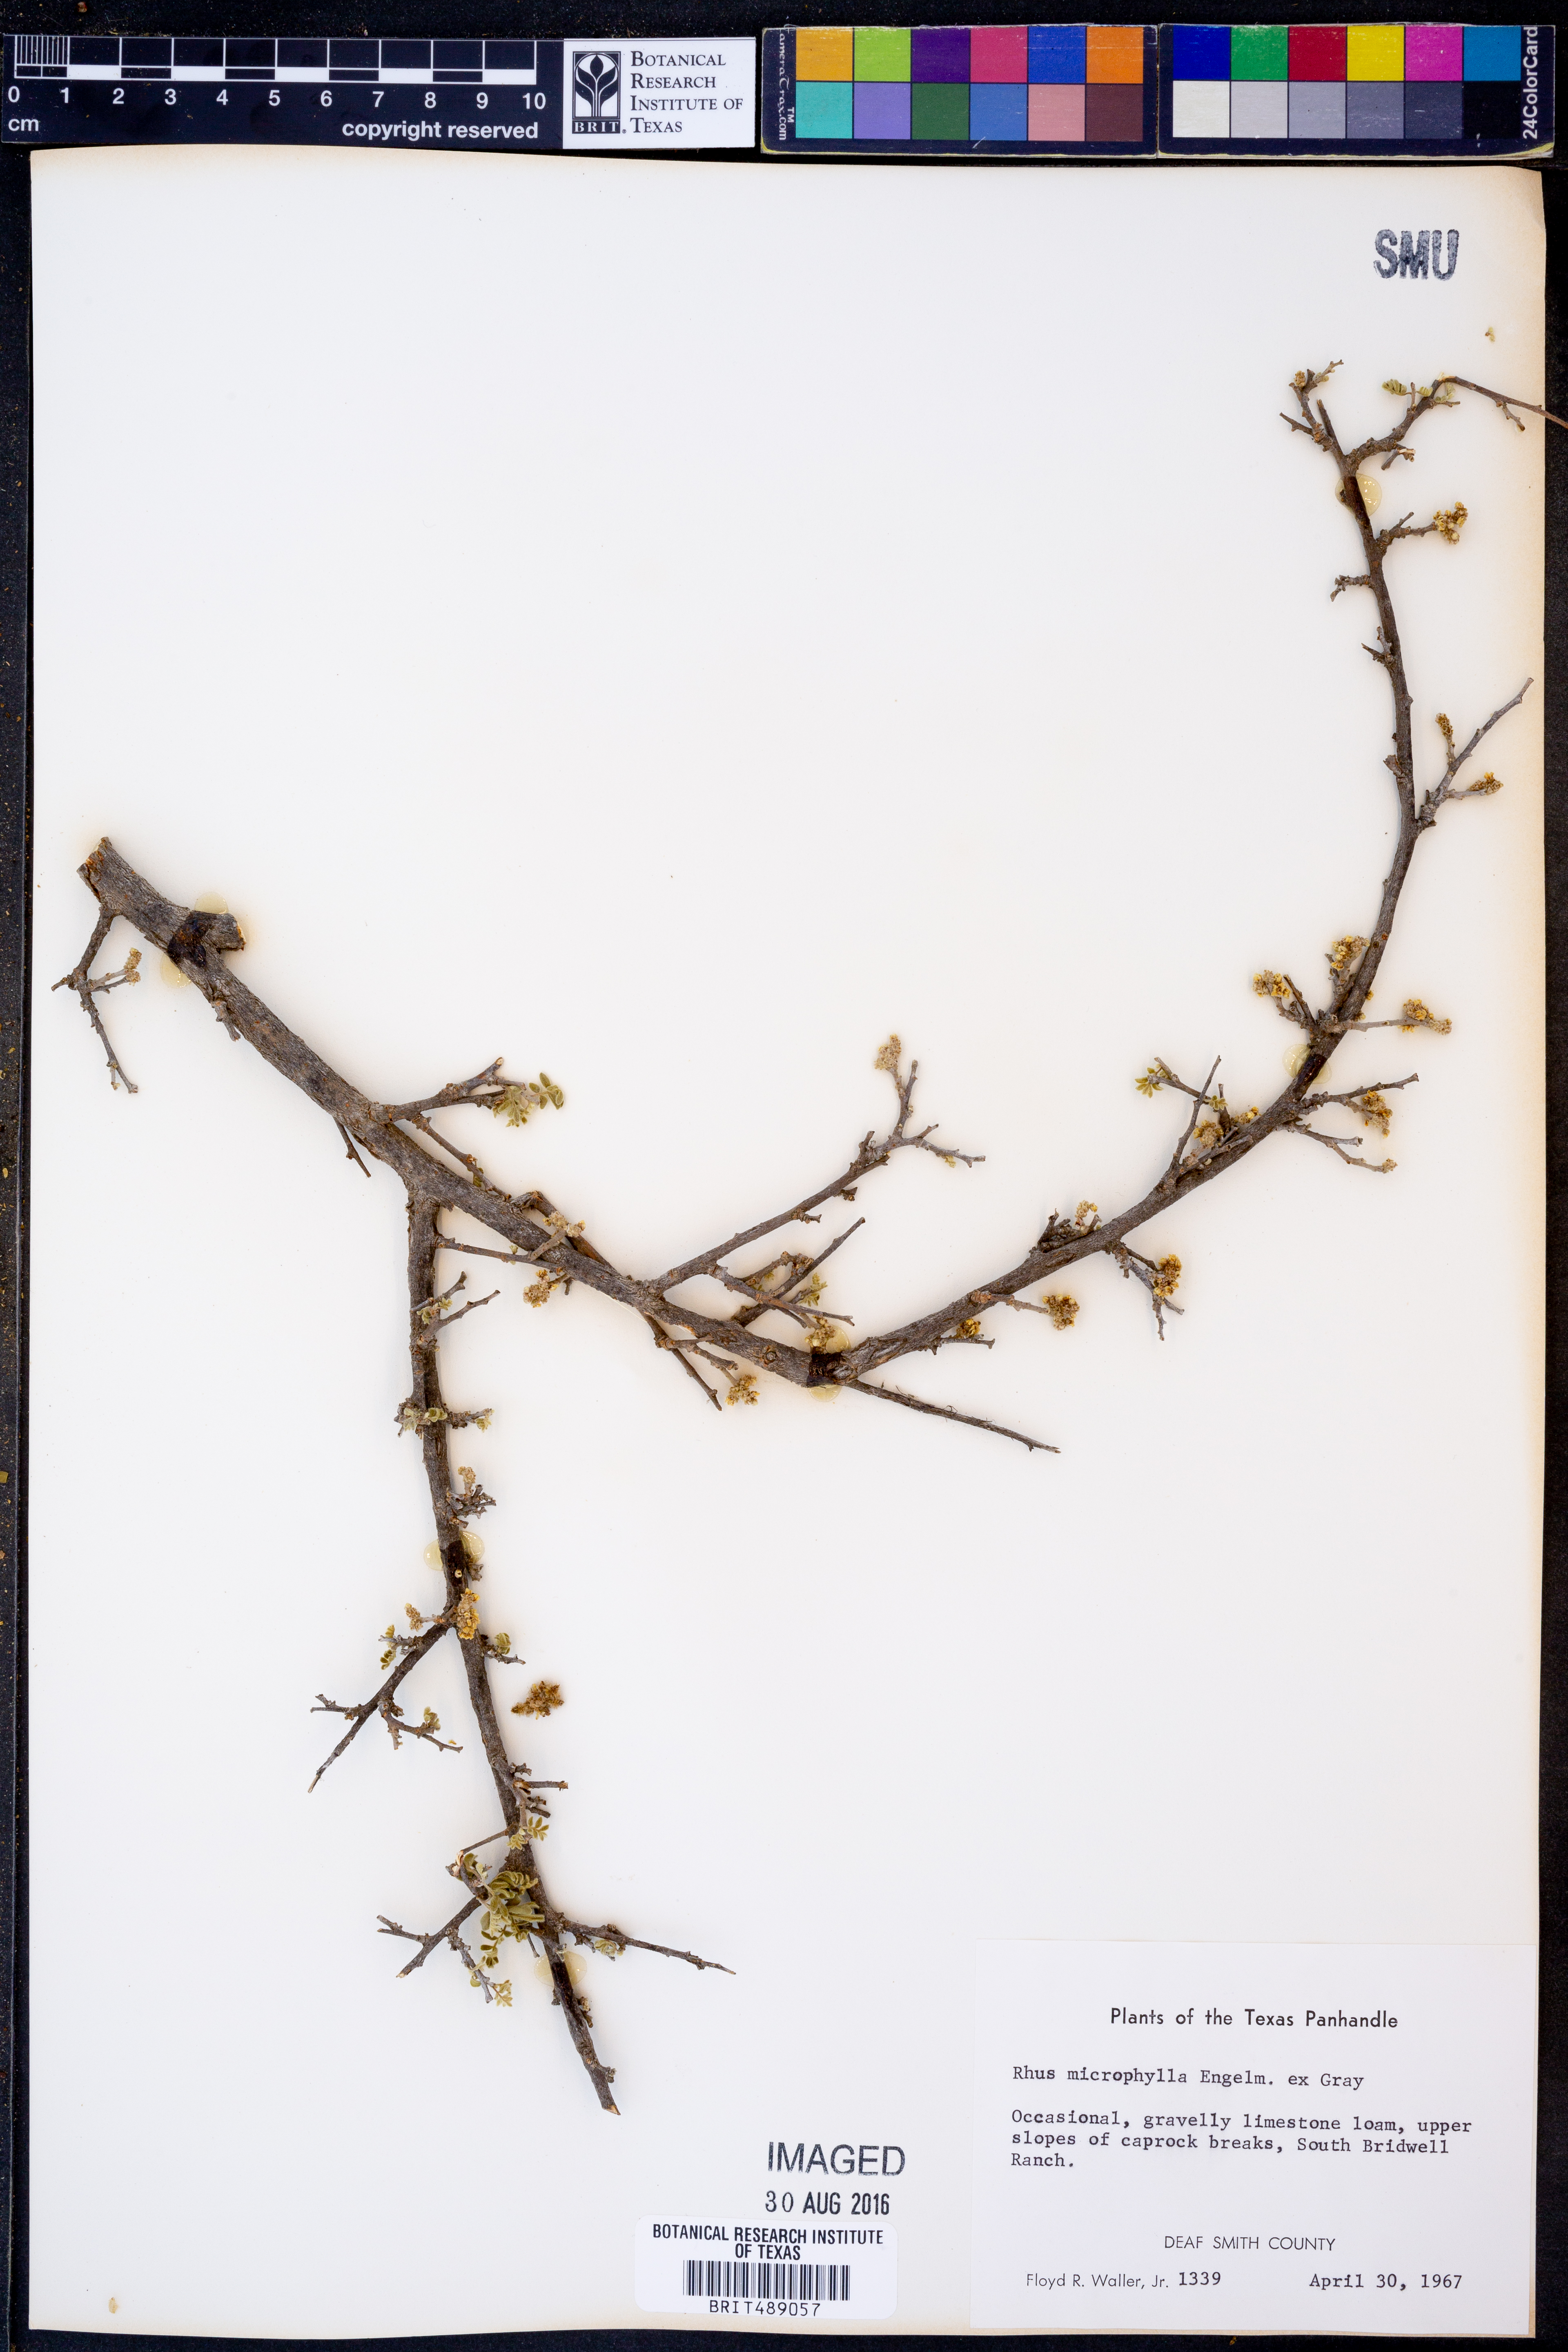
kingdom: Plantae
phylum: Tracheophyta
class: Magnoliopsida
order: Sapindales
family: Anacardiaceae
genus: Rhus
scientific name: Rhus microphylla
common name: Desert sumac
